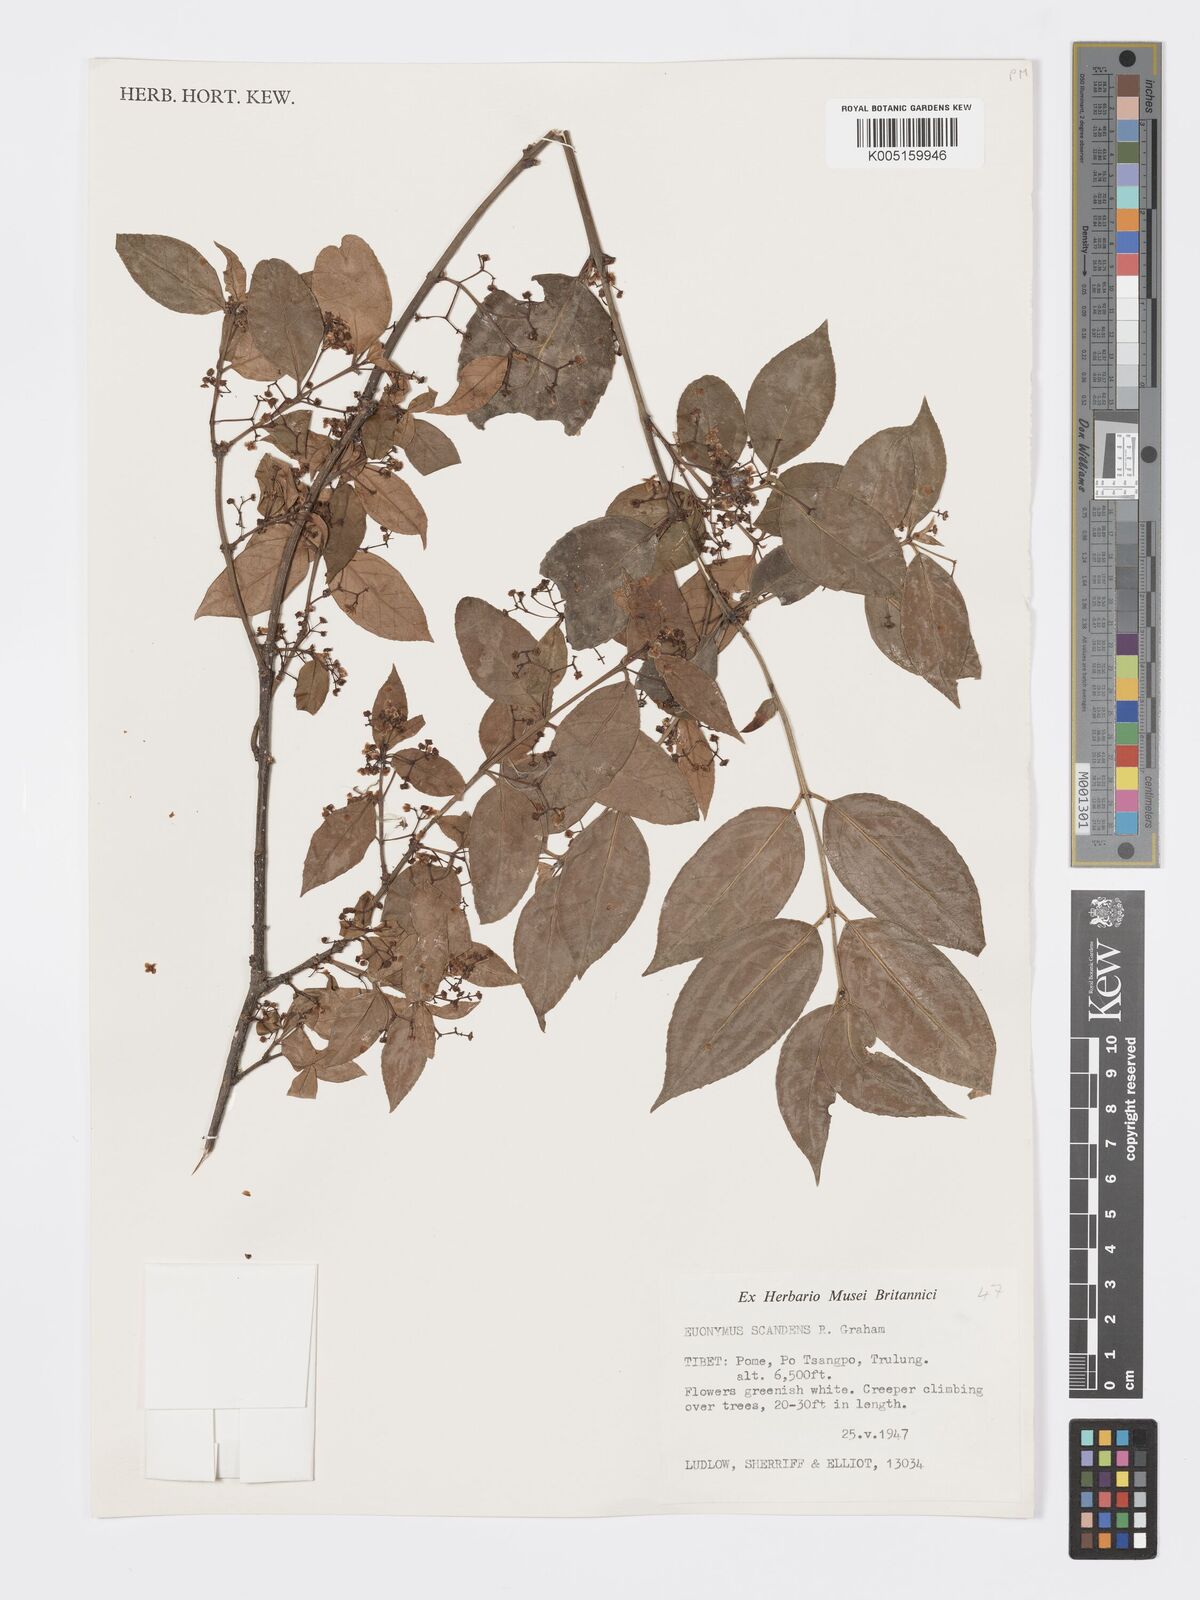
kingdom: Plantae
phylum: Tracheophyta
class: Magnoliopsida
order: Celastrales
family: Celastraceae
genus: Euonymus
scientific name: Euonymus echinatus
